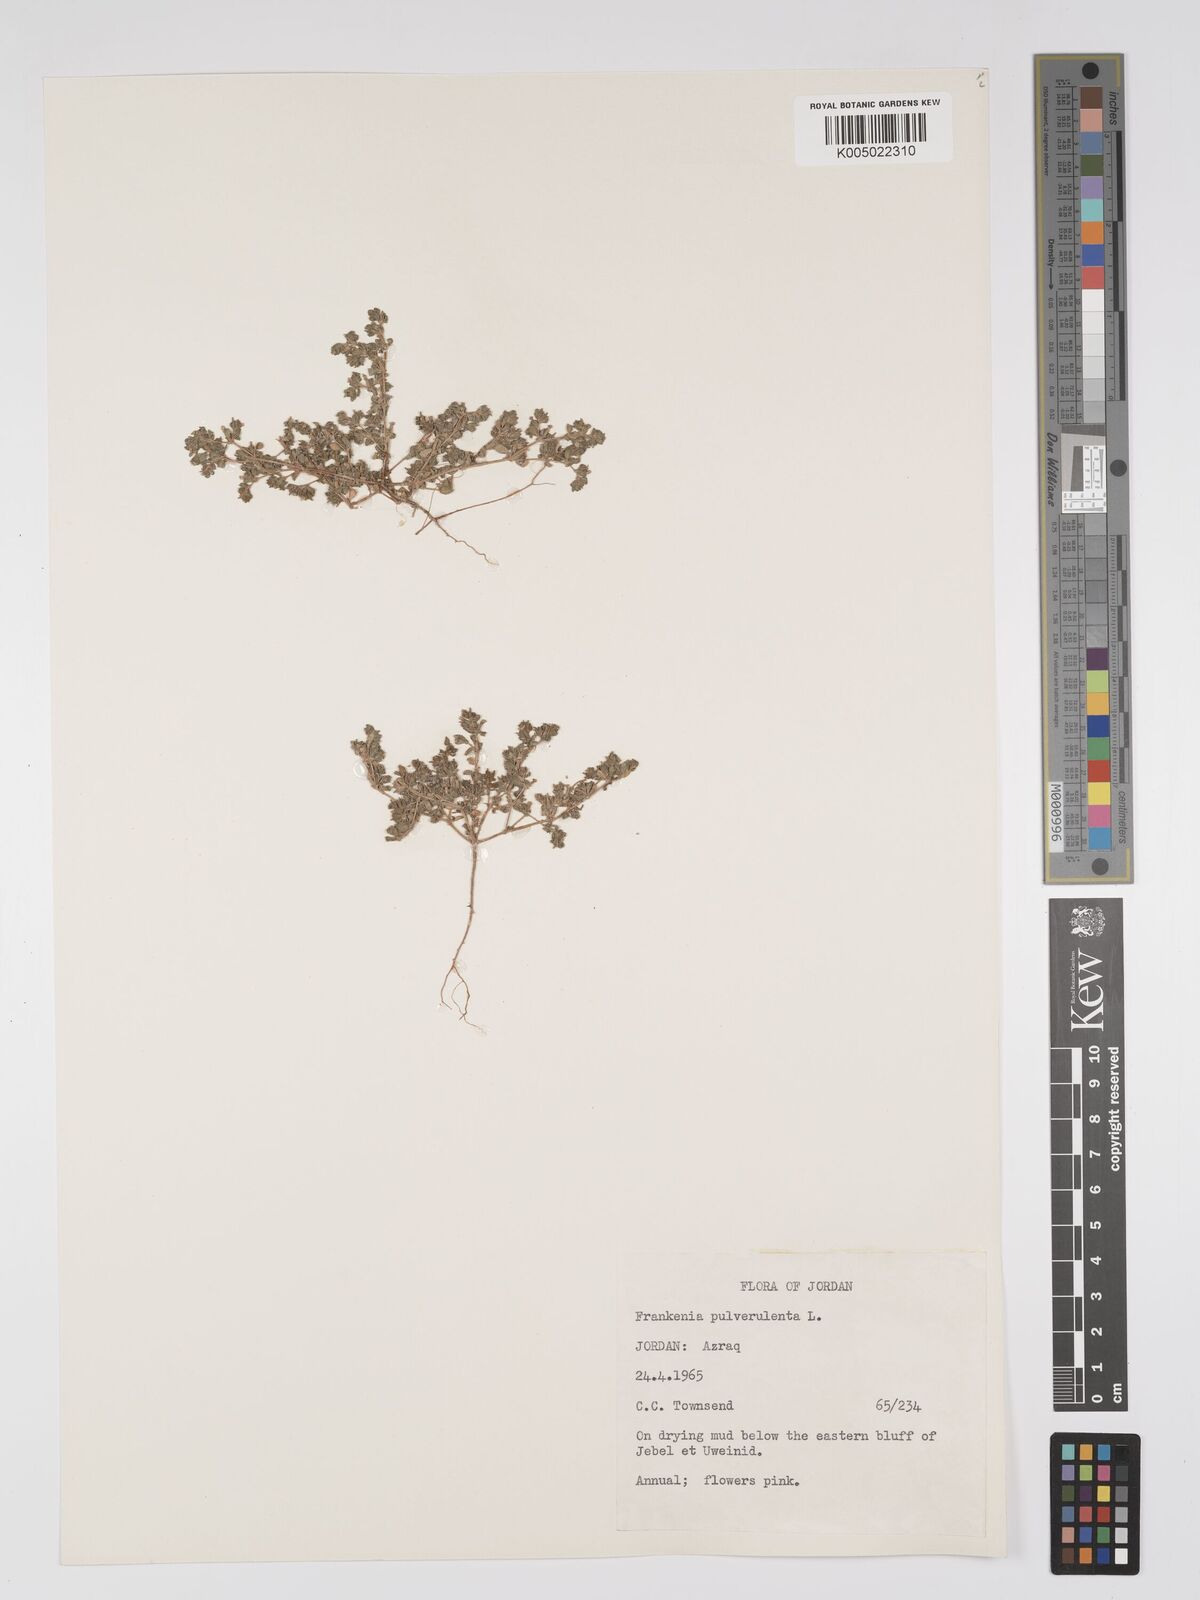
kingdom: Plantae
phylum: Tracheophyta
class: Magnoliopsida
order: Caryophyllales
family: Frankeniaceae
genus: Frankenia
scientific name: Frankenia pulverulenta
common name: European seaheath
